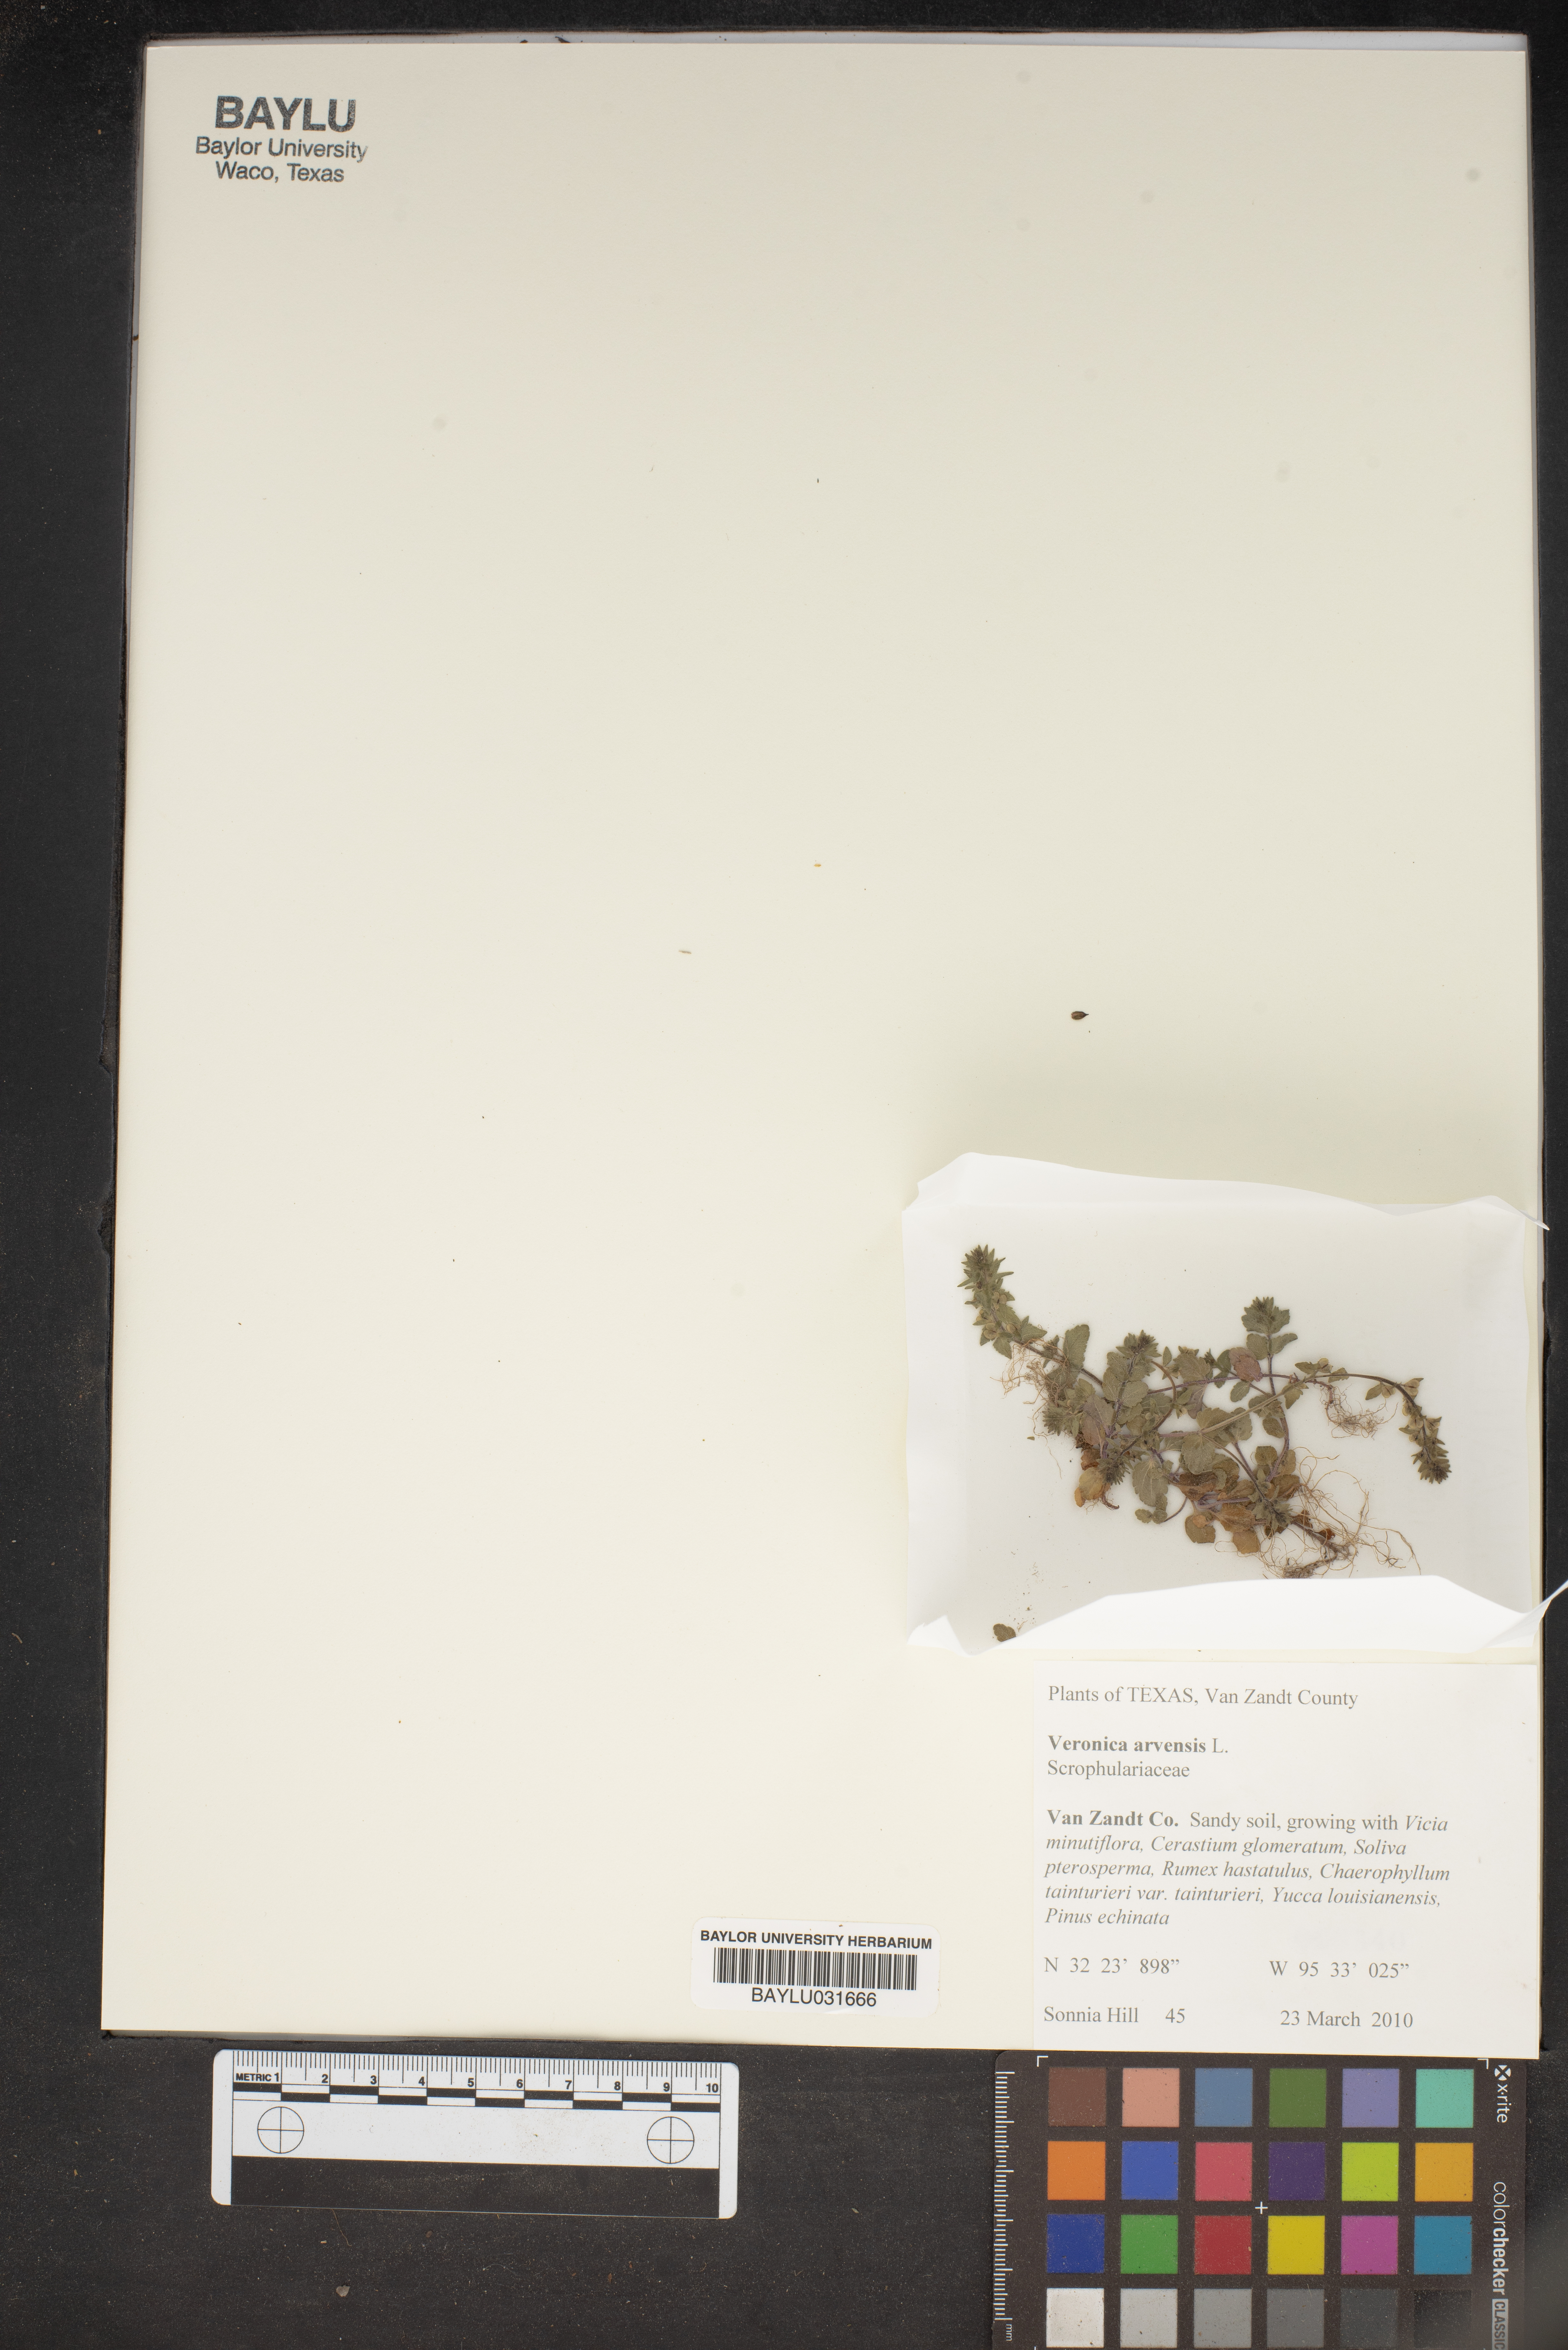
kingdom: Plantae
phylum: Tracheophyta
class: Magnoliopsida
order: Lamiales
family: Plantaginaceae
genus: Veronica
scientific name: Veronica arvensis
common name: Corn speedwell
